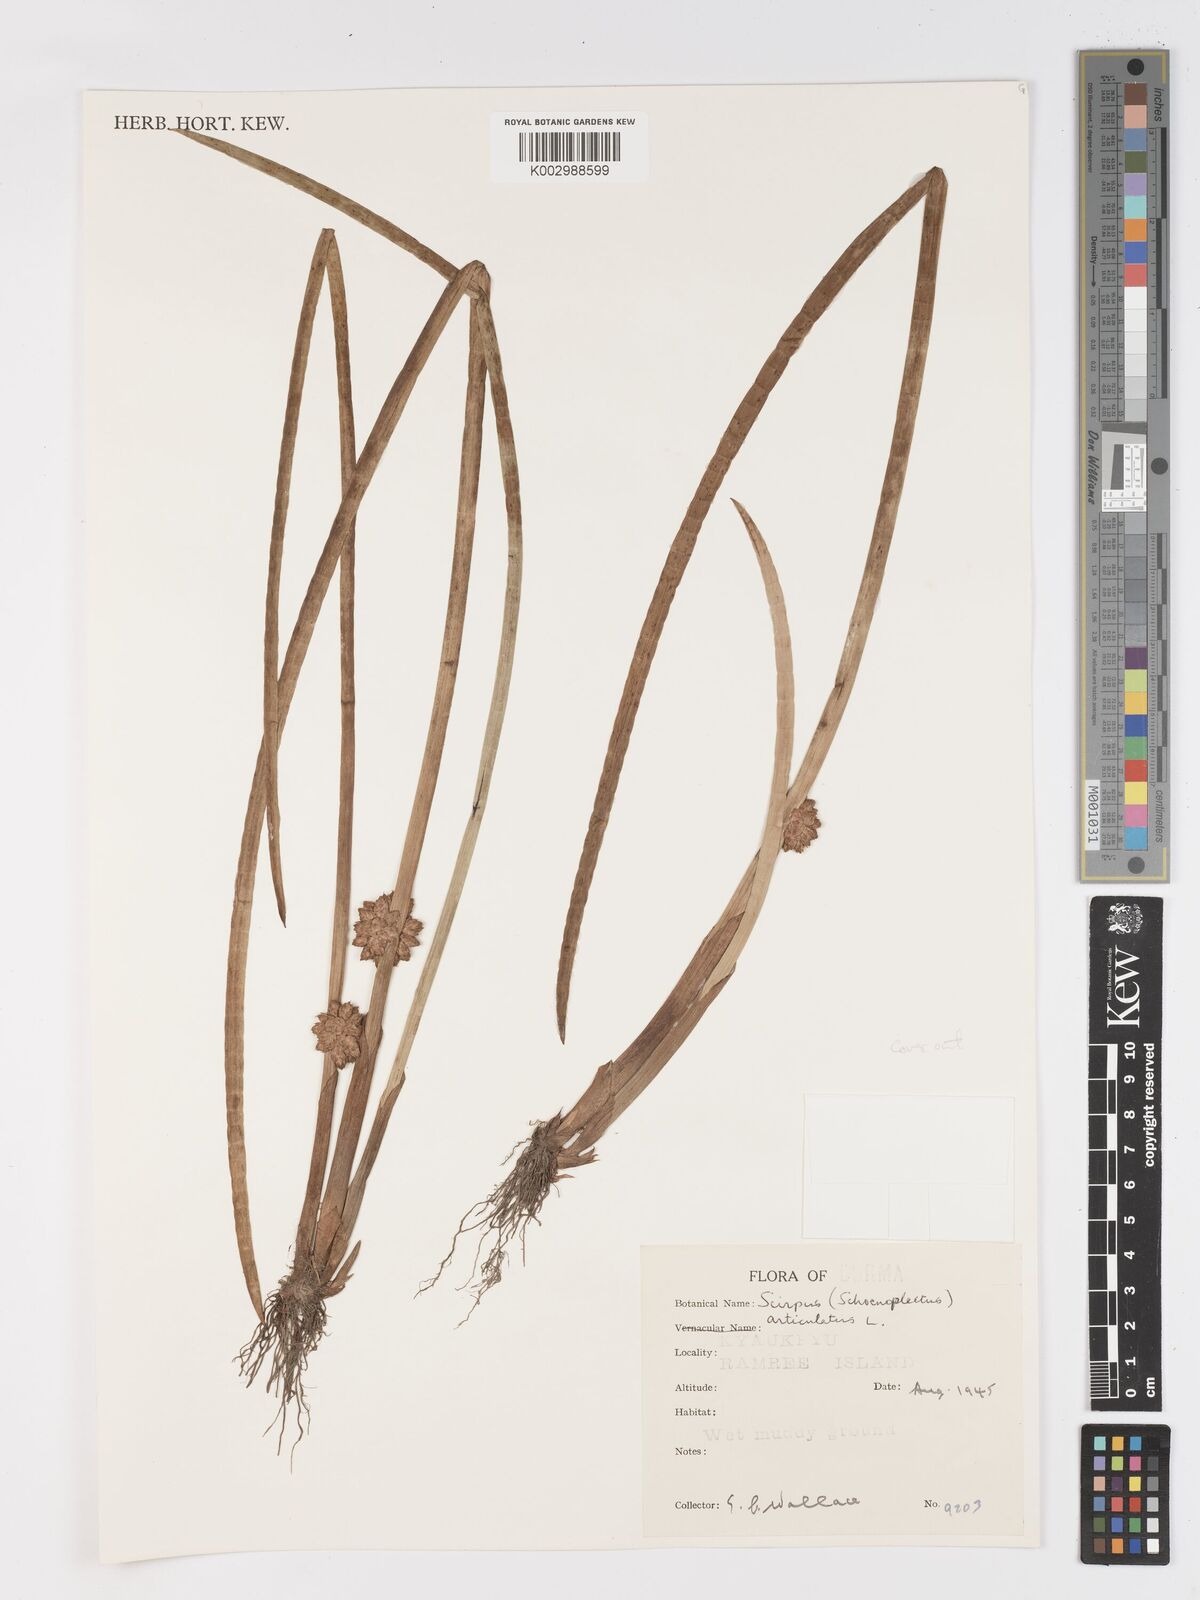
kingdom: Plantae
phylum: Tracheophyta
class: Liliopsida
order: Poales
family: Cyperaceae
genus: Schoenoplectiella
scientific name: Schoenoplectiella articulata
